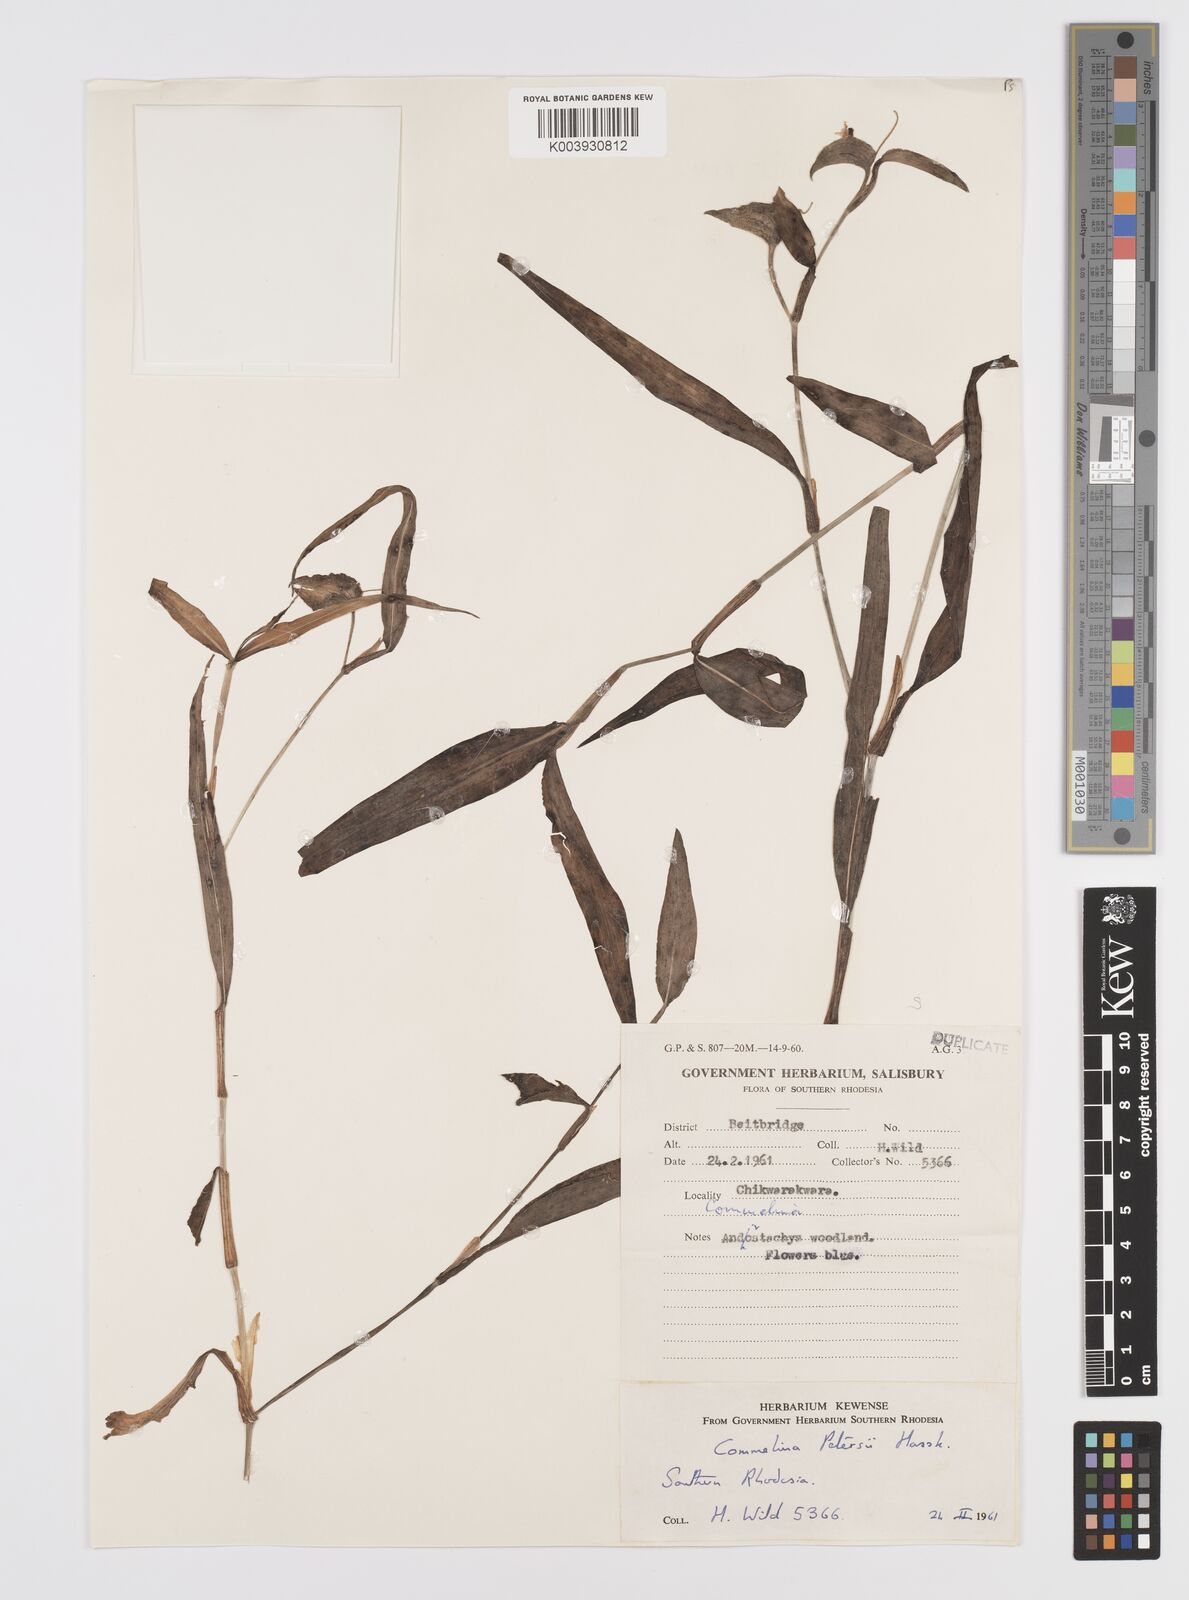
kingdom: Plantae
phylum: Tracheophyta
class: Liliopsida
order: Commelinales
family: Commelinaceae
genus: Commelina
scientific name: Commelina petersii
